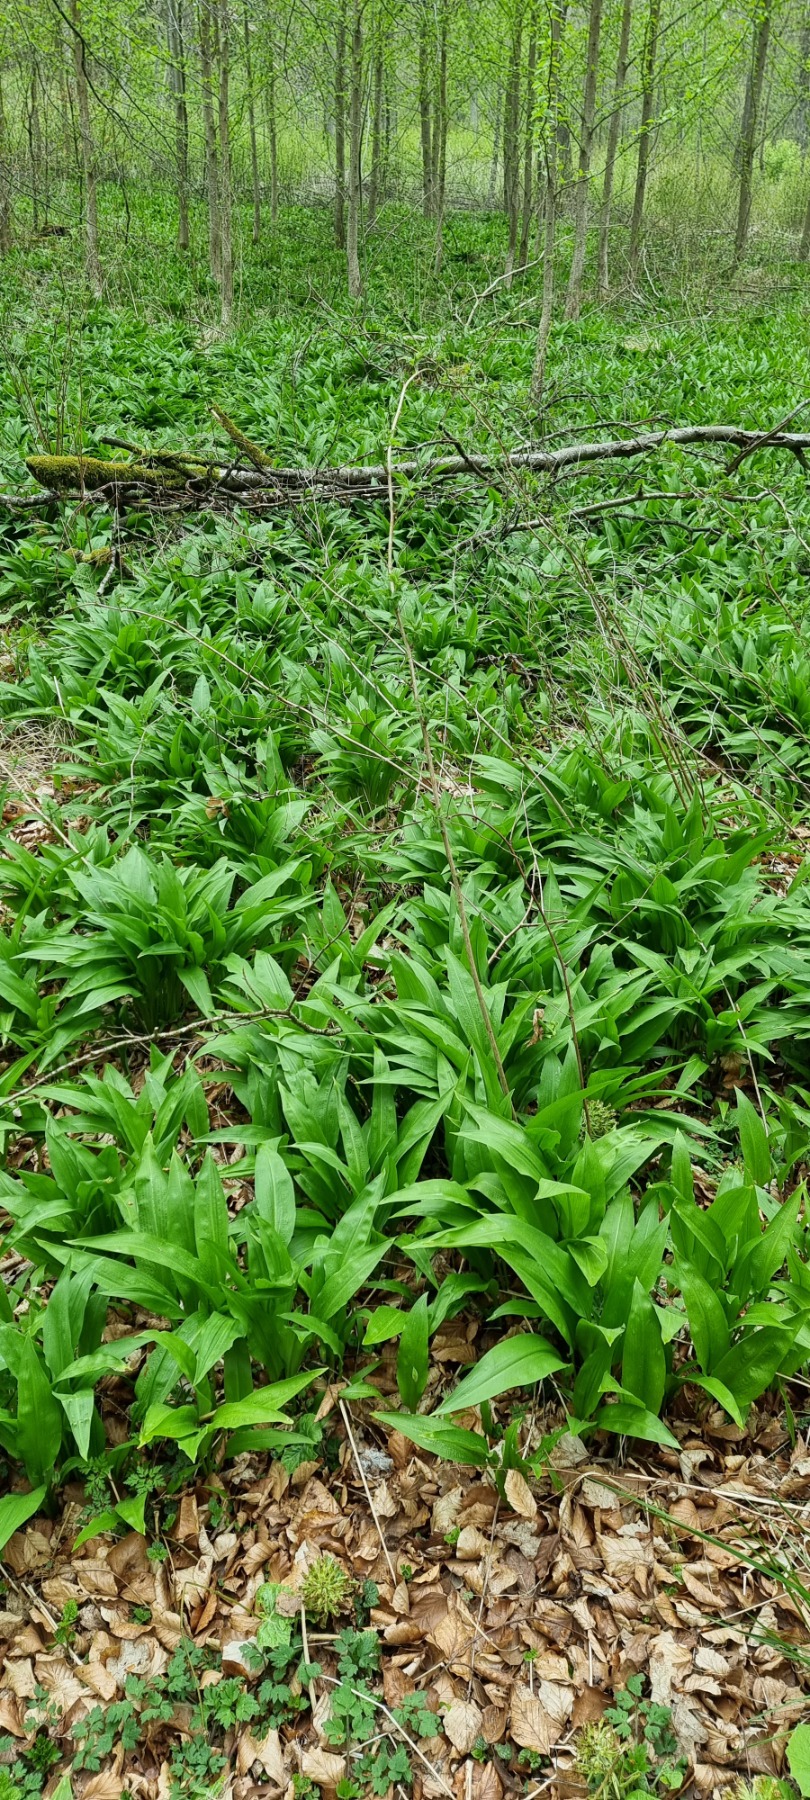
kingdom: Plantae
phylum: Tracheophyta
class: Liliopsida
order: Asparagales
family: Amaryllidaceae
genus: Allium
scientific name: Allium ursinum
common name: Rams-løg
